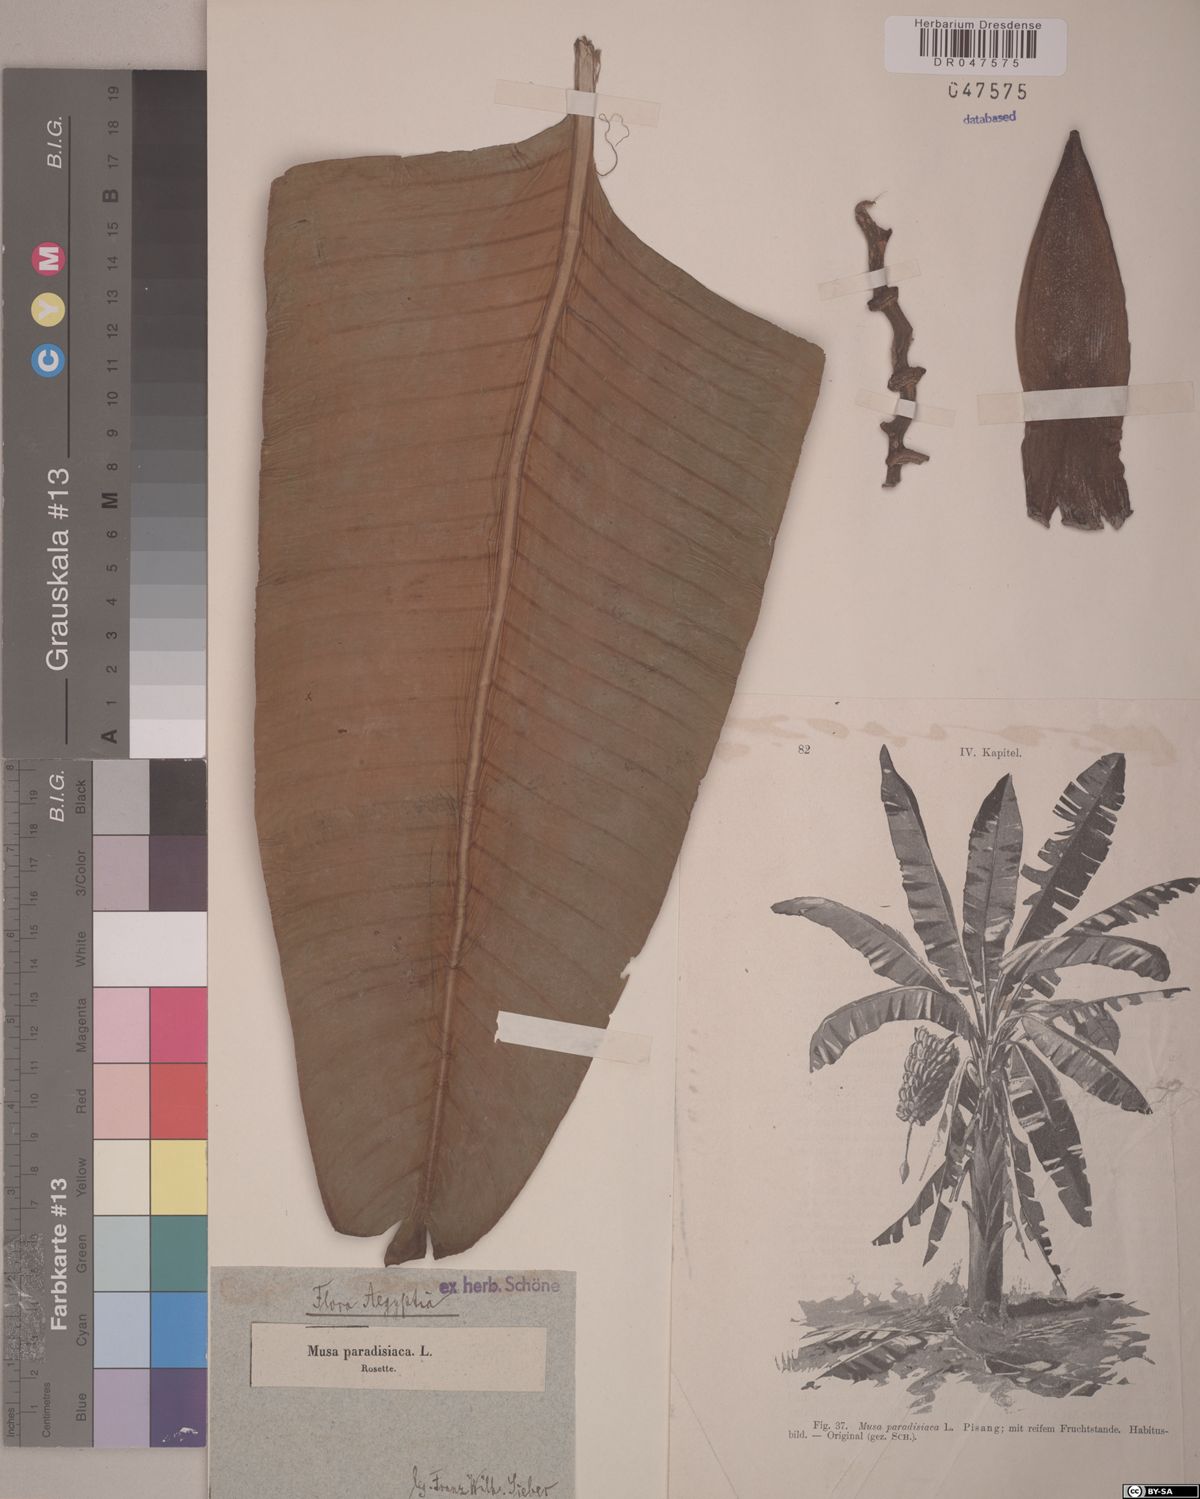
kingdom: Plantae
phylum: Tracheophyta
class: Liliopsida
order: Zingiberales
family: Musaceae
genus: Musa
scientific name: Musa paradisiaca
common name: French plantain
